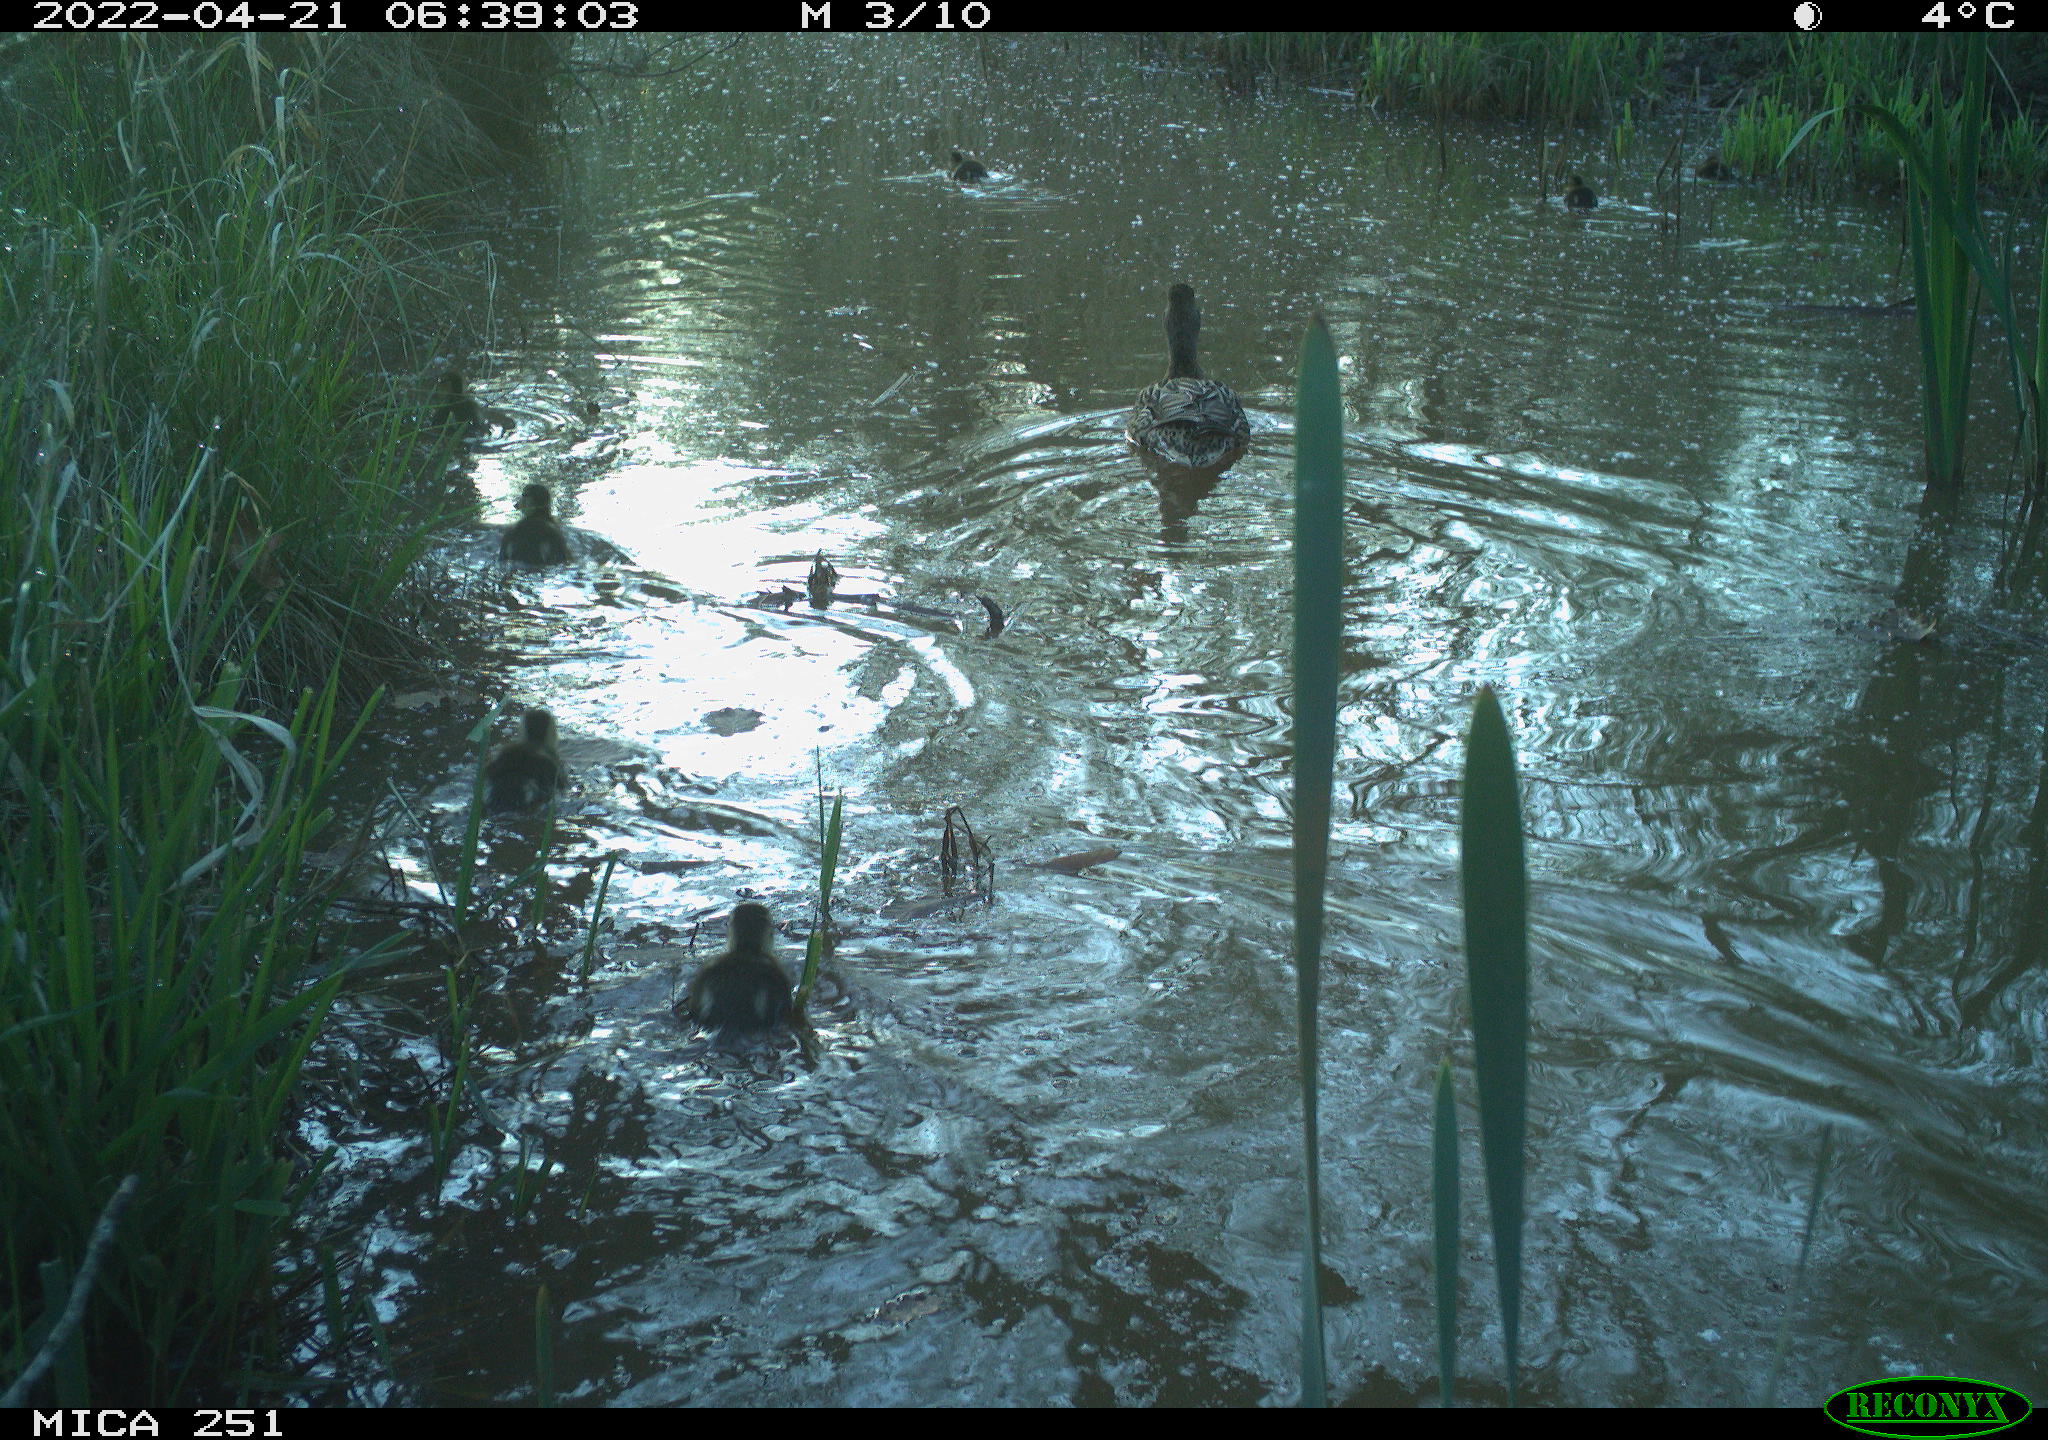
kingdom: Animalia
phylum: Chordata
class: Aves
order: Anseriformes
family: Anatidae
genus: Anas
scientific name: Anas platyrhynchos
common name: Mallard
